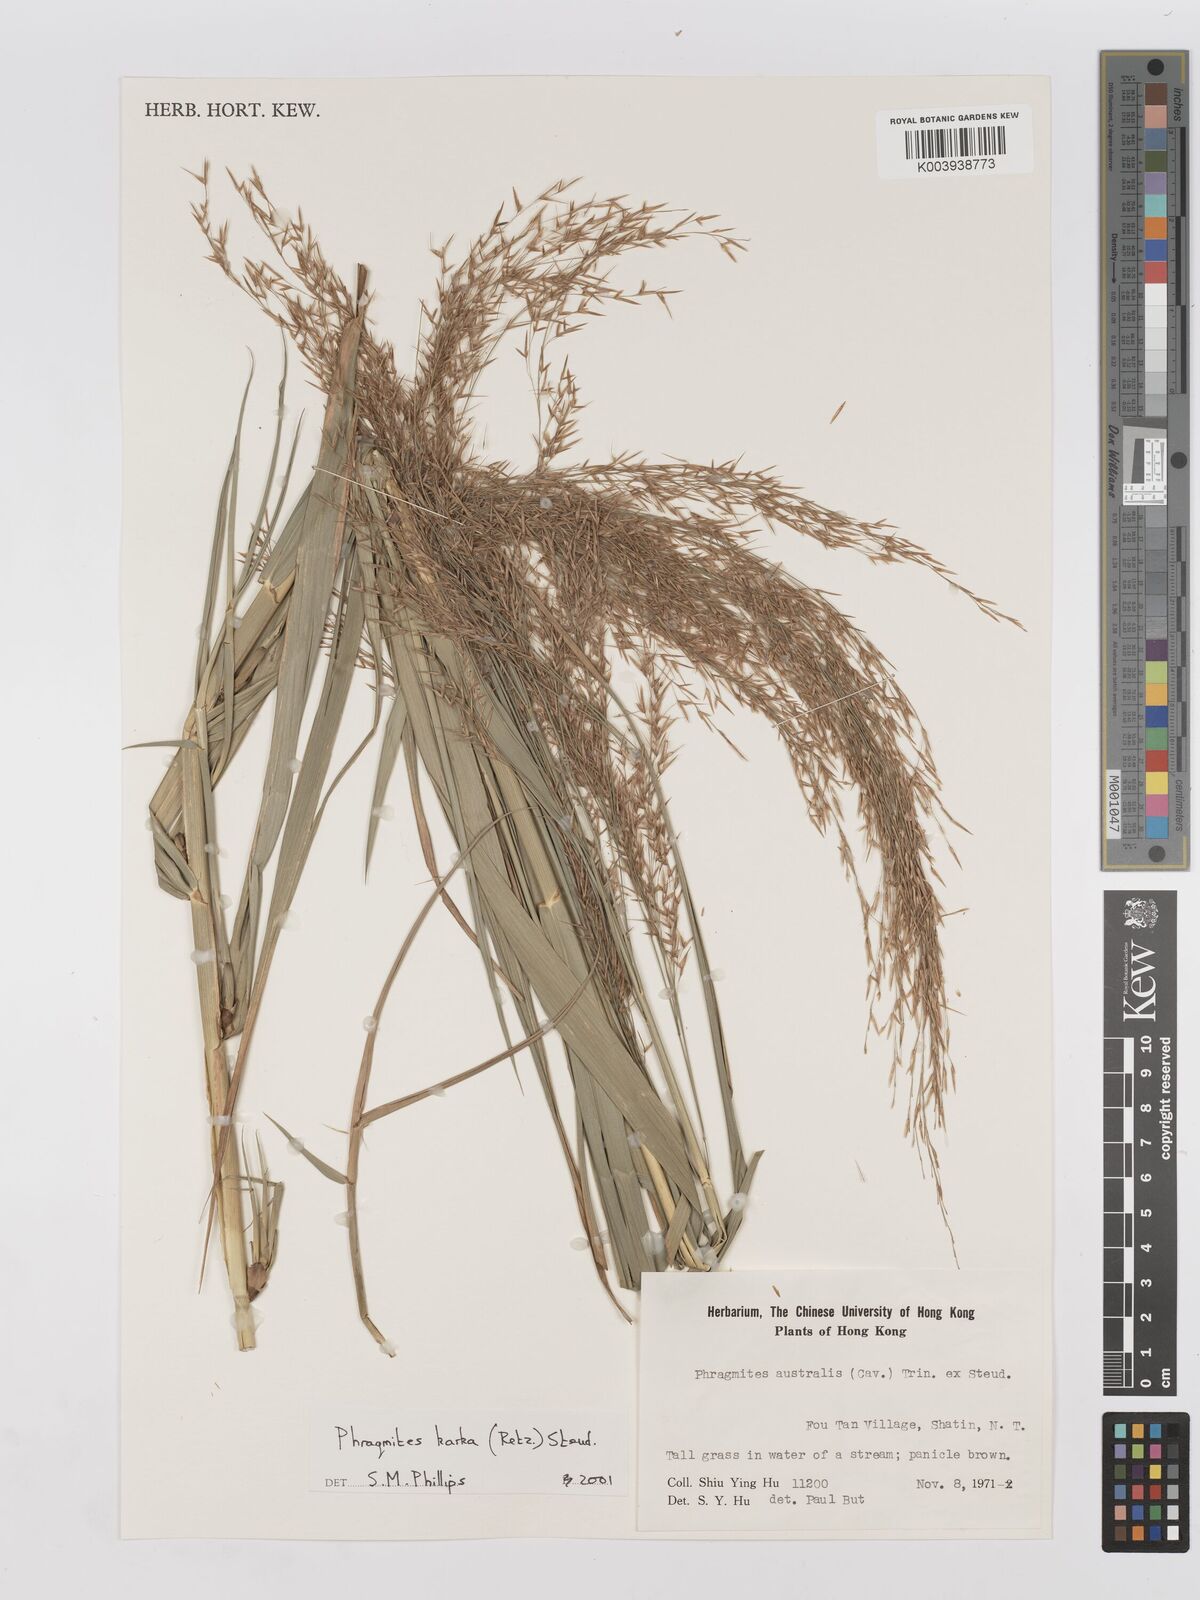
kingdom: Plantae
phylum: Tracheophyta
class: Liliopsida
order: Poales
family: Poaceae
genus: Phragmites
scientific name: Phragmites karka
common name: Tropical reed
